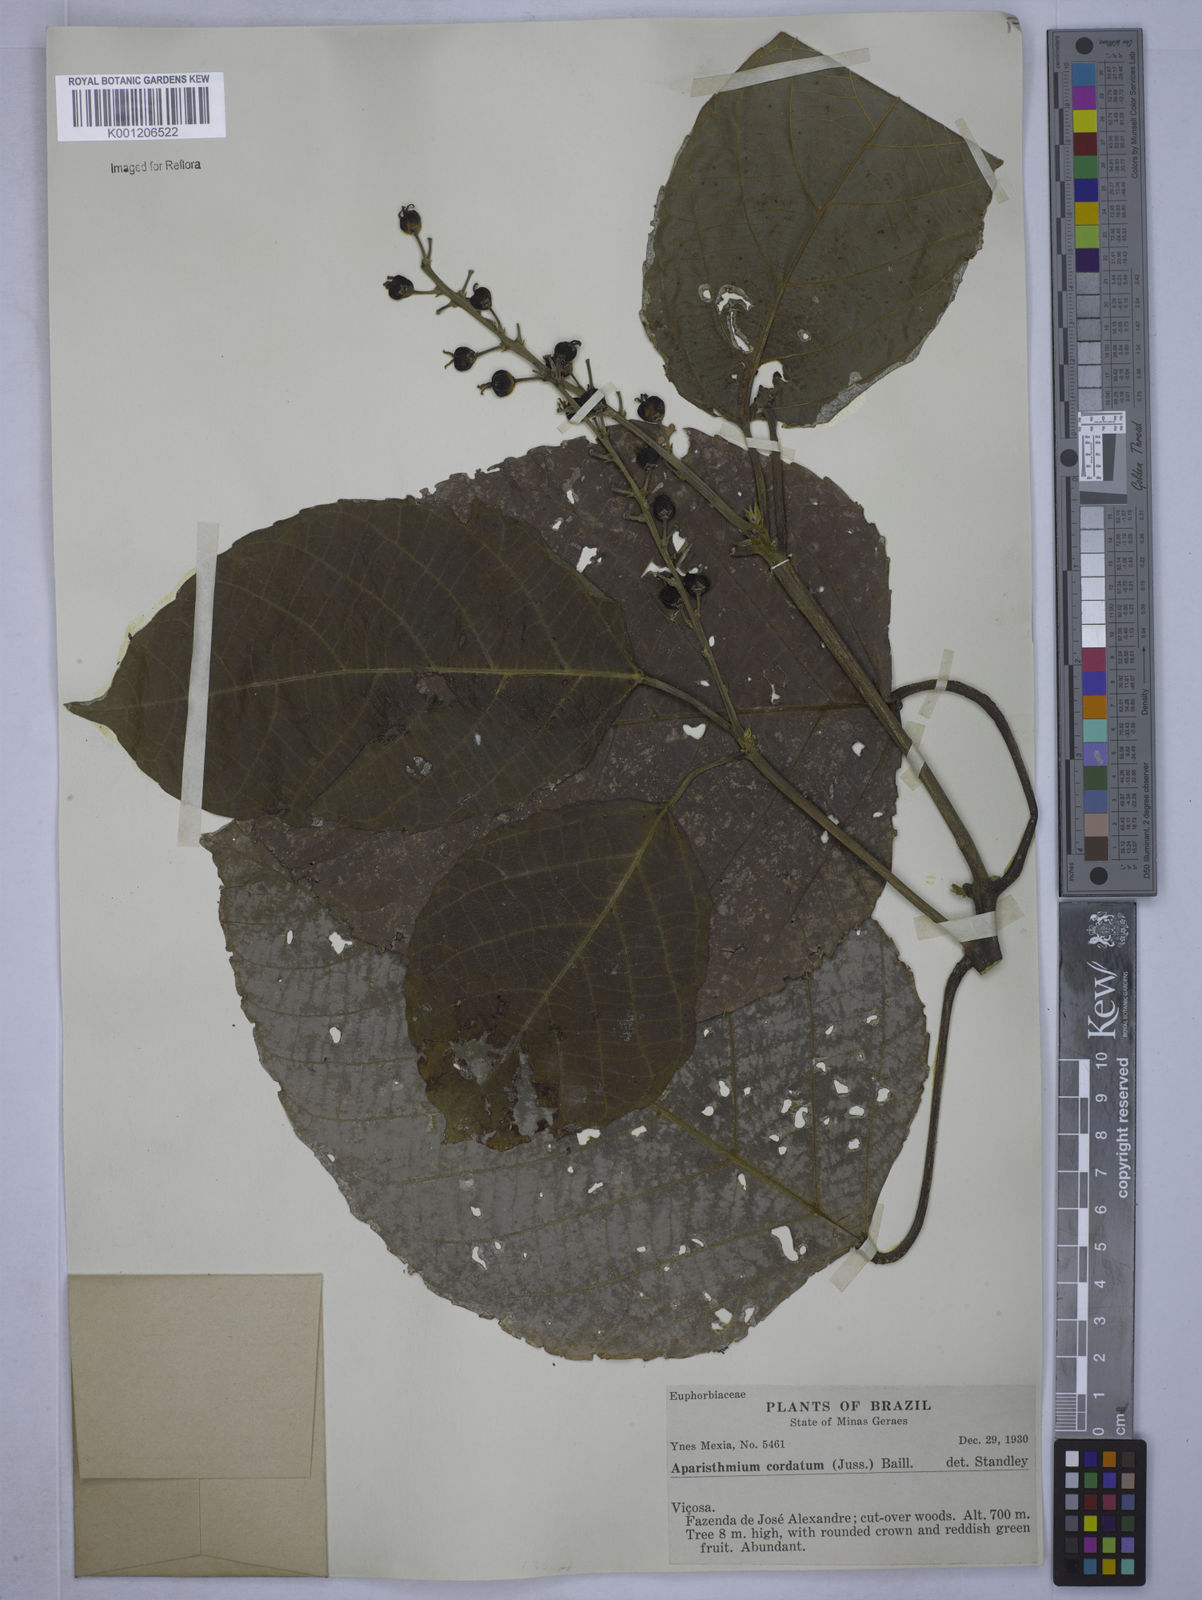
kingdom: Plantae
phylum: Tracheophyta
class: Magnoliopsida
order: Malpighiales
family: Euphorbiaceae
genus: Aparisthmium
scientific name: Aparisthmium cordatum
